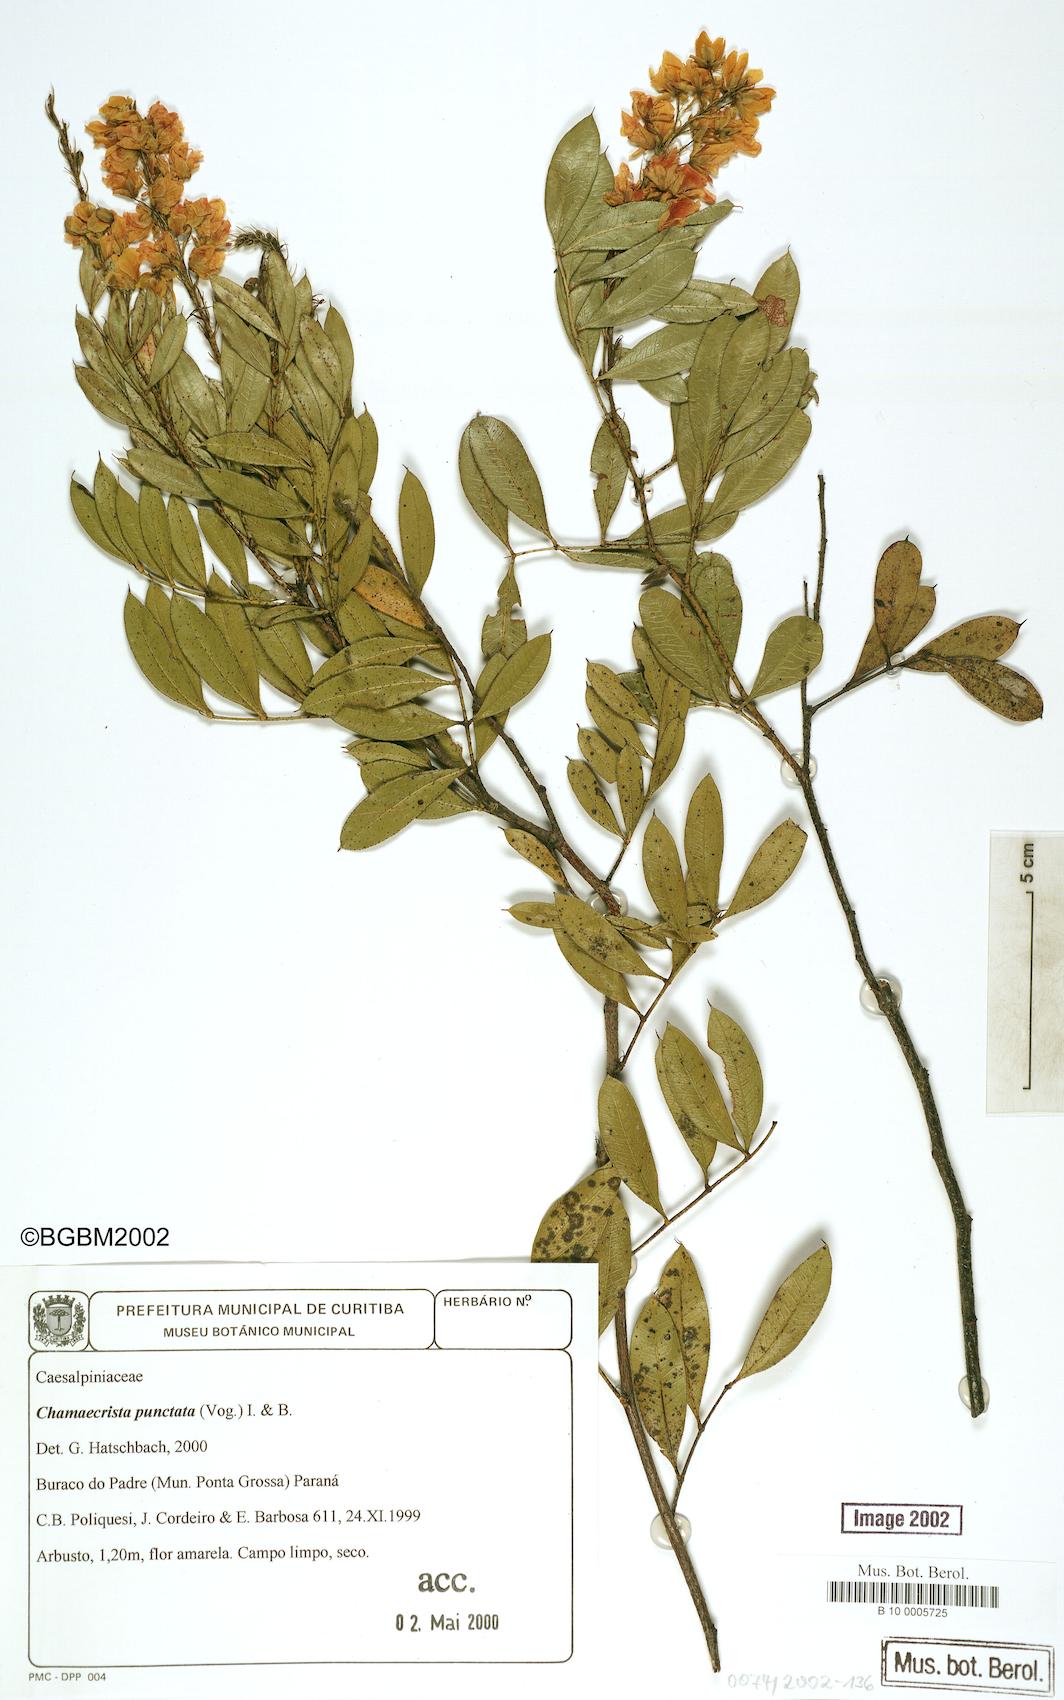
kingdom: Plantae
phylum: Tracheophyta
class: Magnoliopsida
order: Fabales
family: Fabaceae
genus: Chamaecrista
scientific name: Chamaecrista punctata
